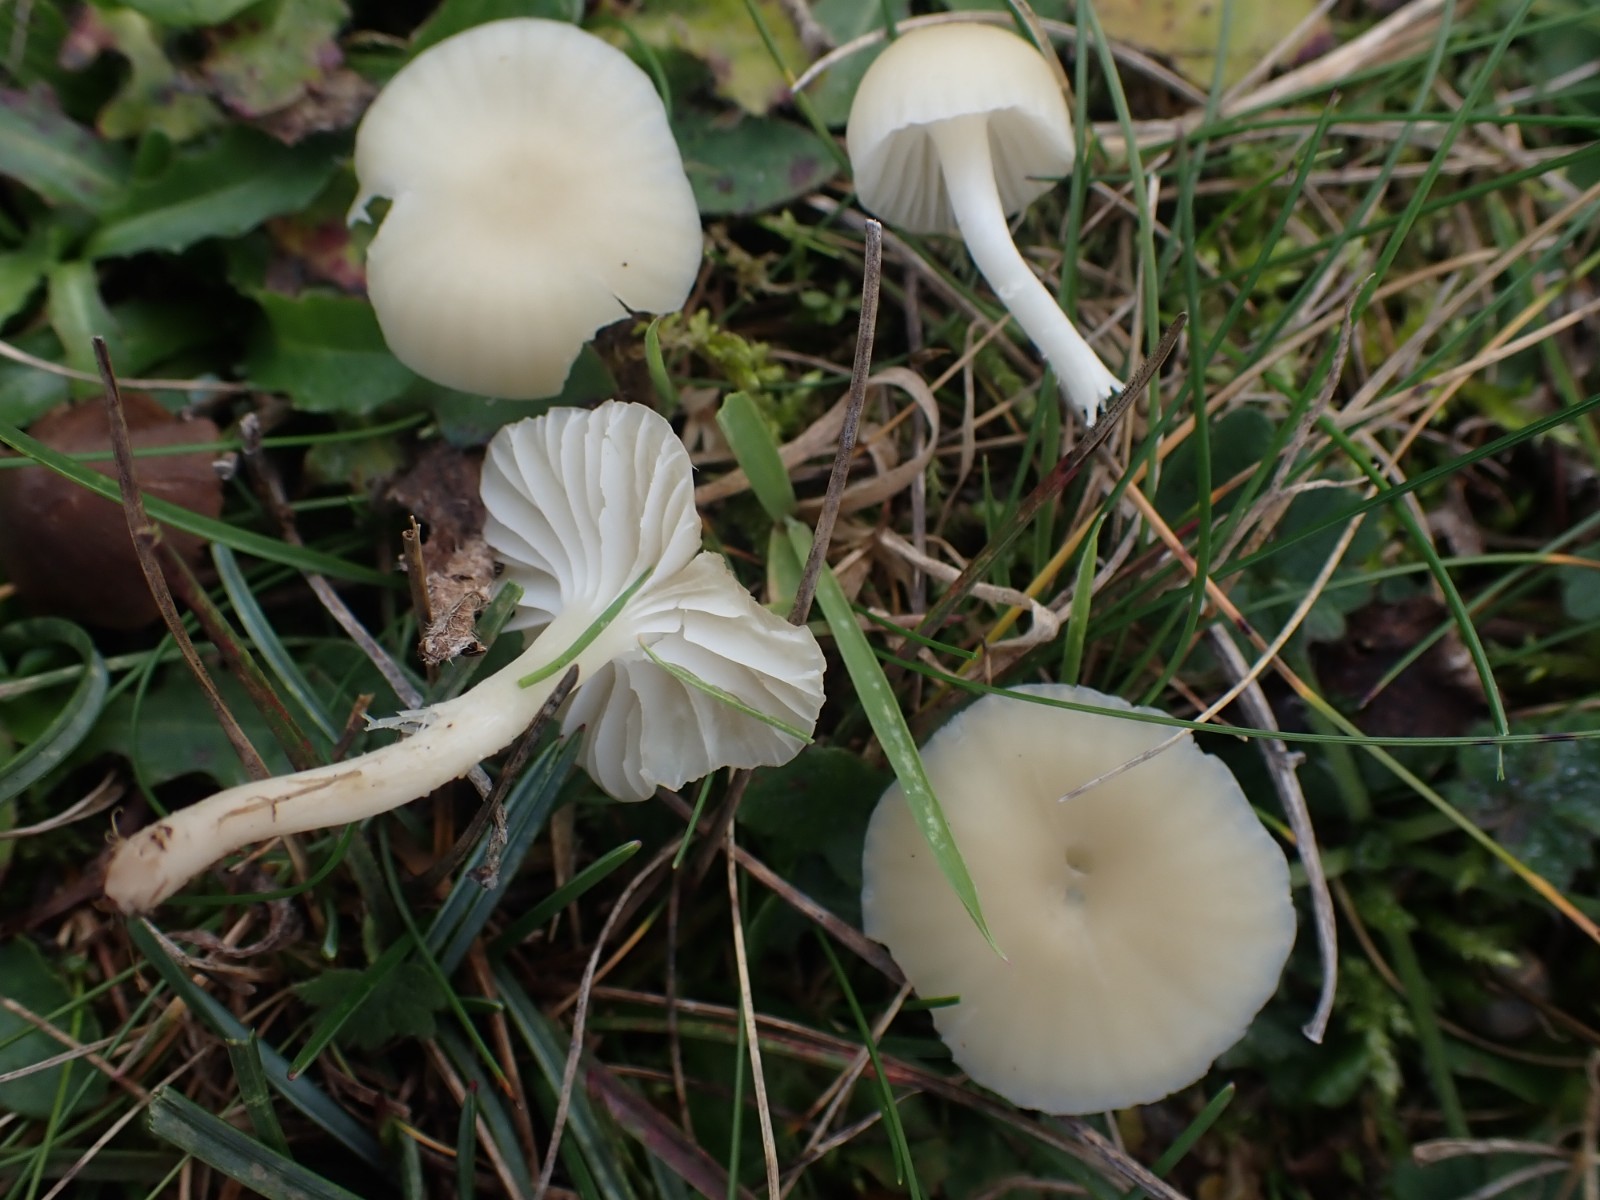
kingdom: Fungi
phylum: Basidiomycota
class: Agaricomycetes
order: Agaricales
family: Hygrophoraceae
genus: Cuphophyllus
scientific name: Cuphophyllus russocoriaceus
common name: ruslæder-vokshat
